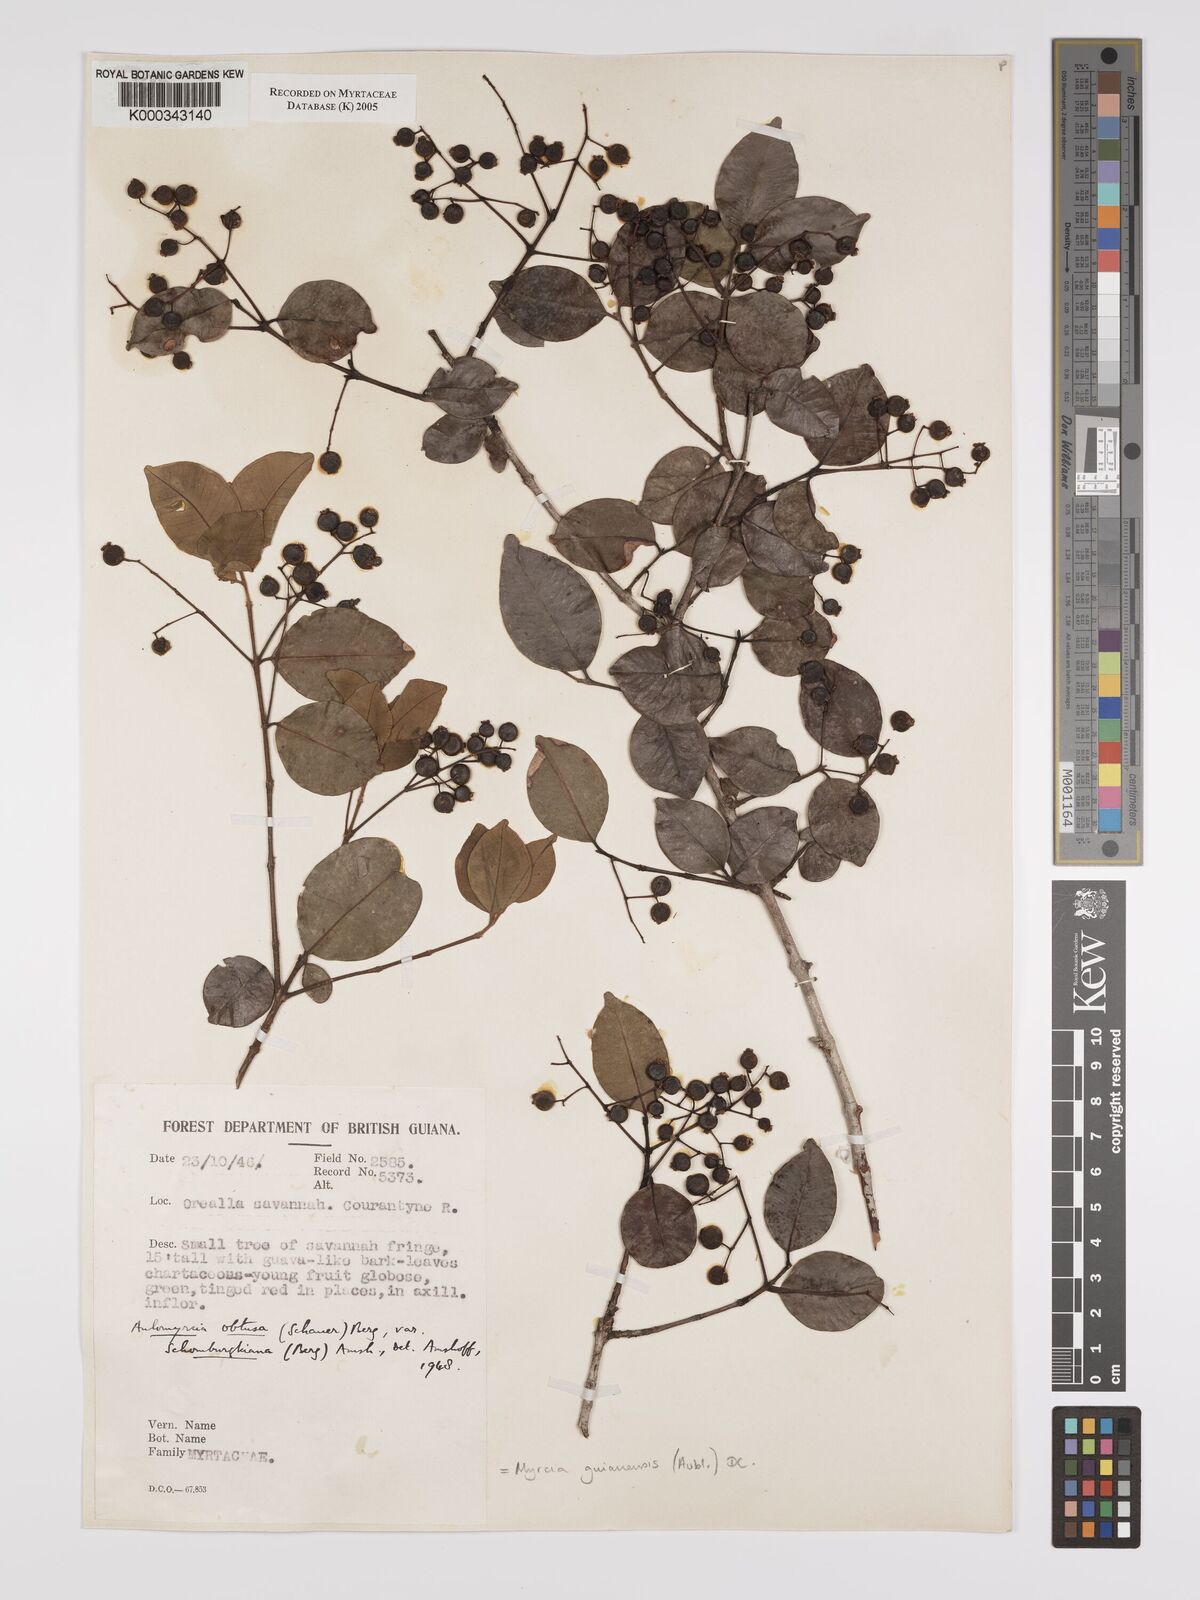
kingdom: Plantae
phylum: Tracheophyta
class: Magnoliopsida
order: Myrtales
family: Myrtaceae
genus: Myrcia
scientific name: Myrcia guianensis
